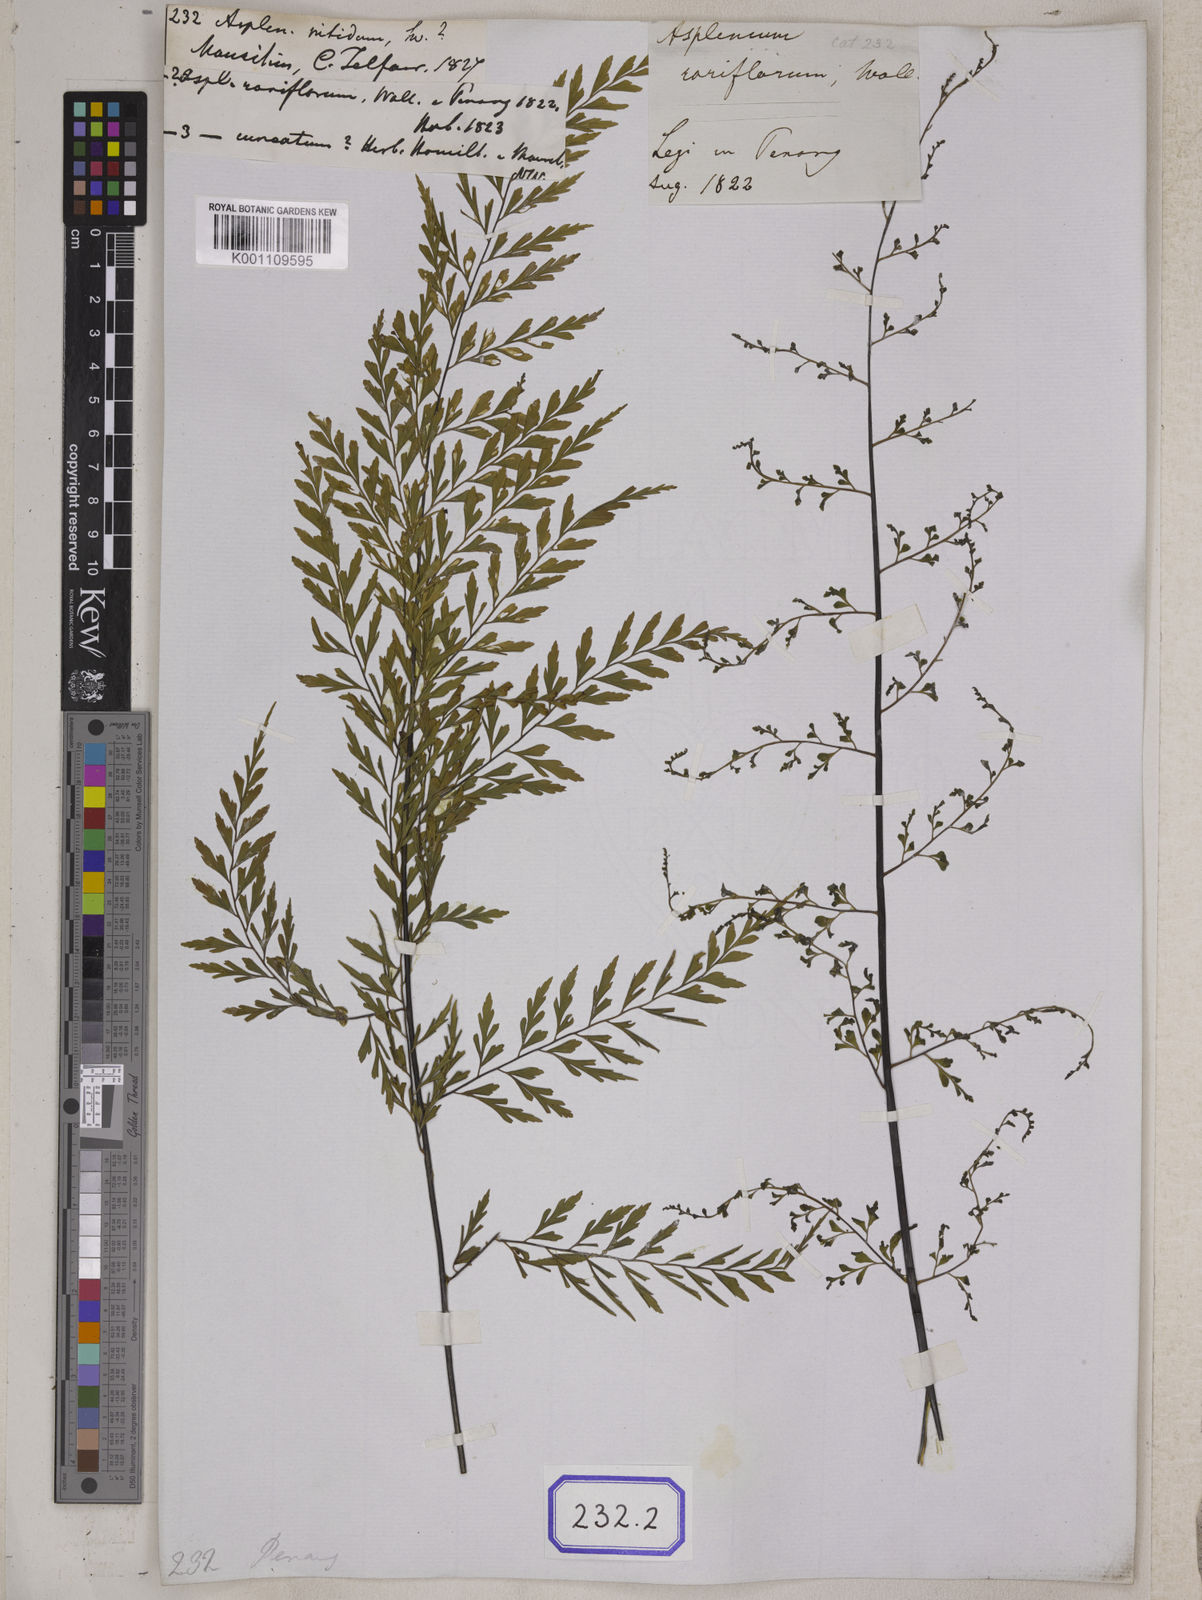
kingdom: Plantae
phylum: Tracheophyta
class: Polypodiopsida
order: Polypodiales
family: Aspleniaceae
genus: Asplenium
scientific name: Asplenium nitidum
